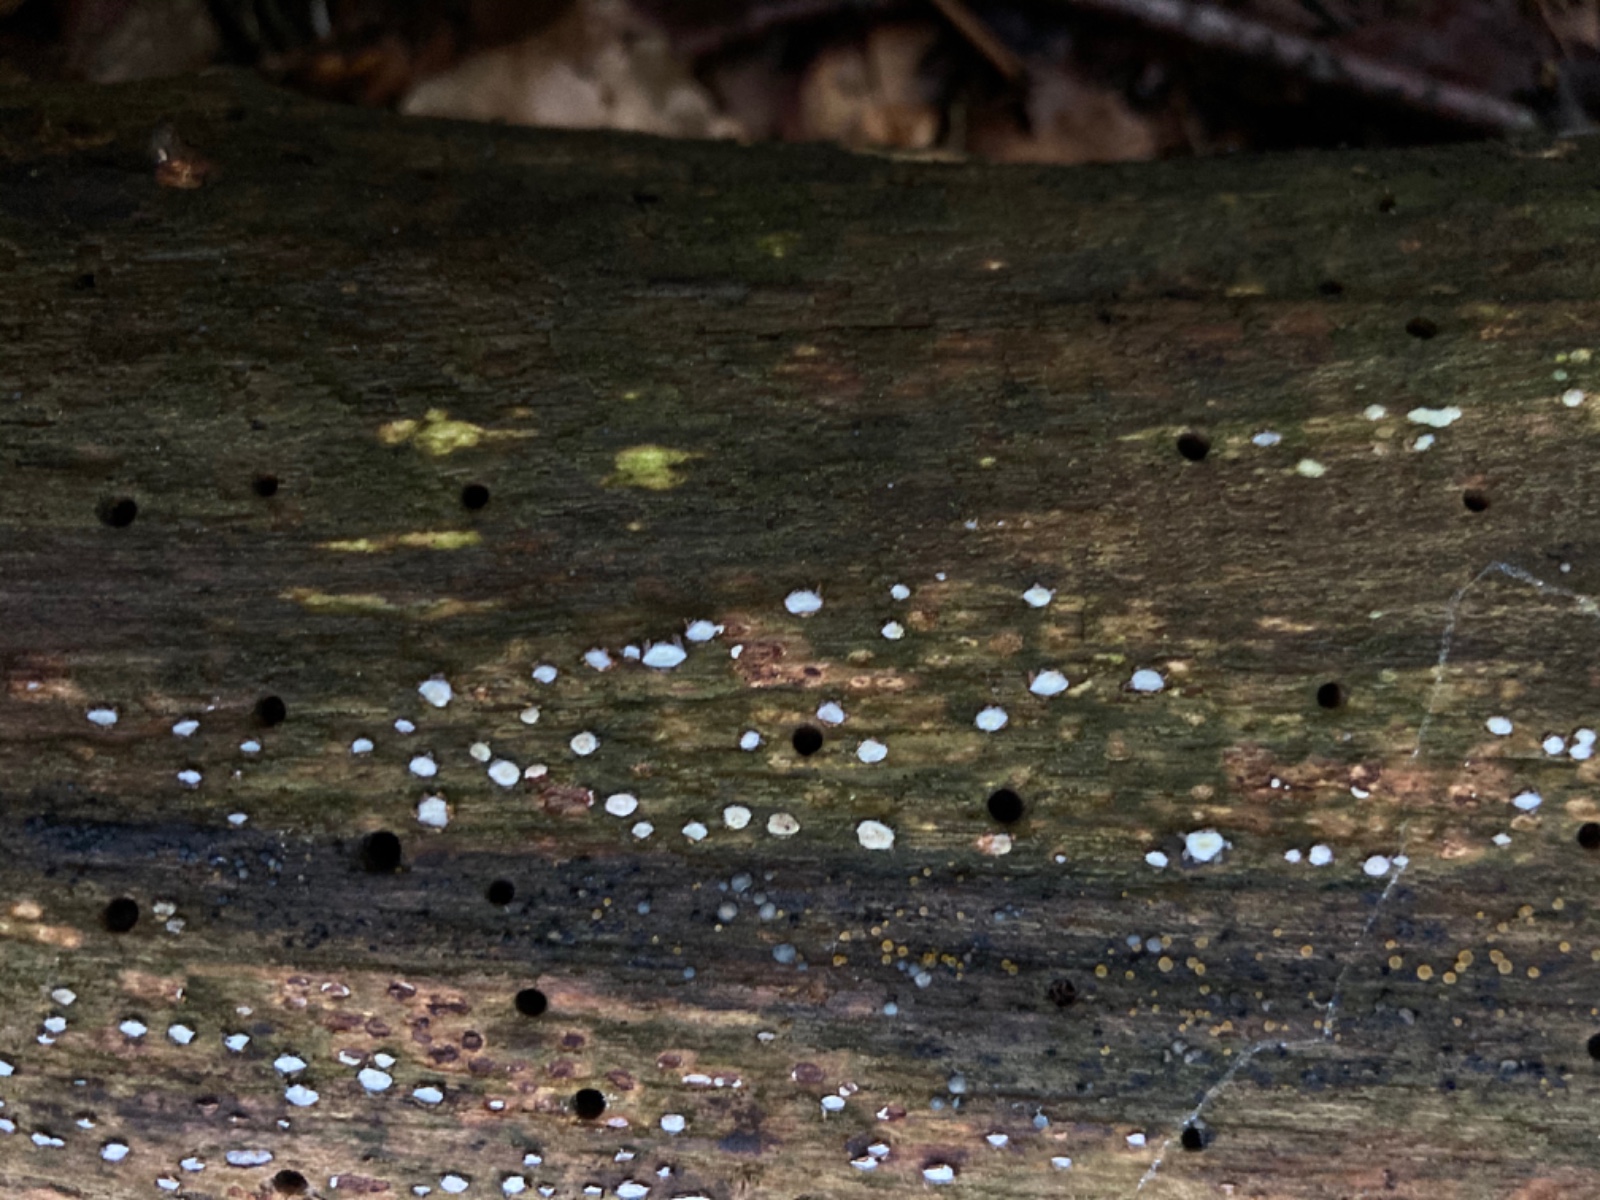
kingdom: Fungi
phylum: Ascomycota
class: Leotiomycetes
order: Chaetomellales
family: Marthamycetaceae
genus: Propolis
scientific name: Propolis farinosa
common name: almindelig vedsprængerskive
